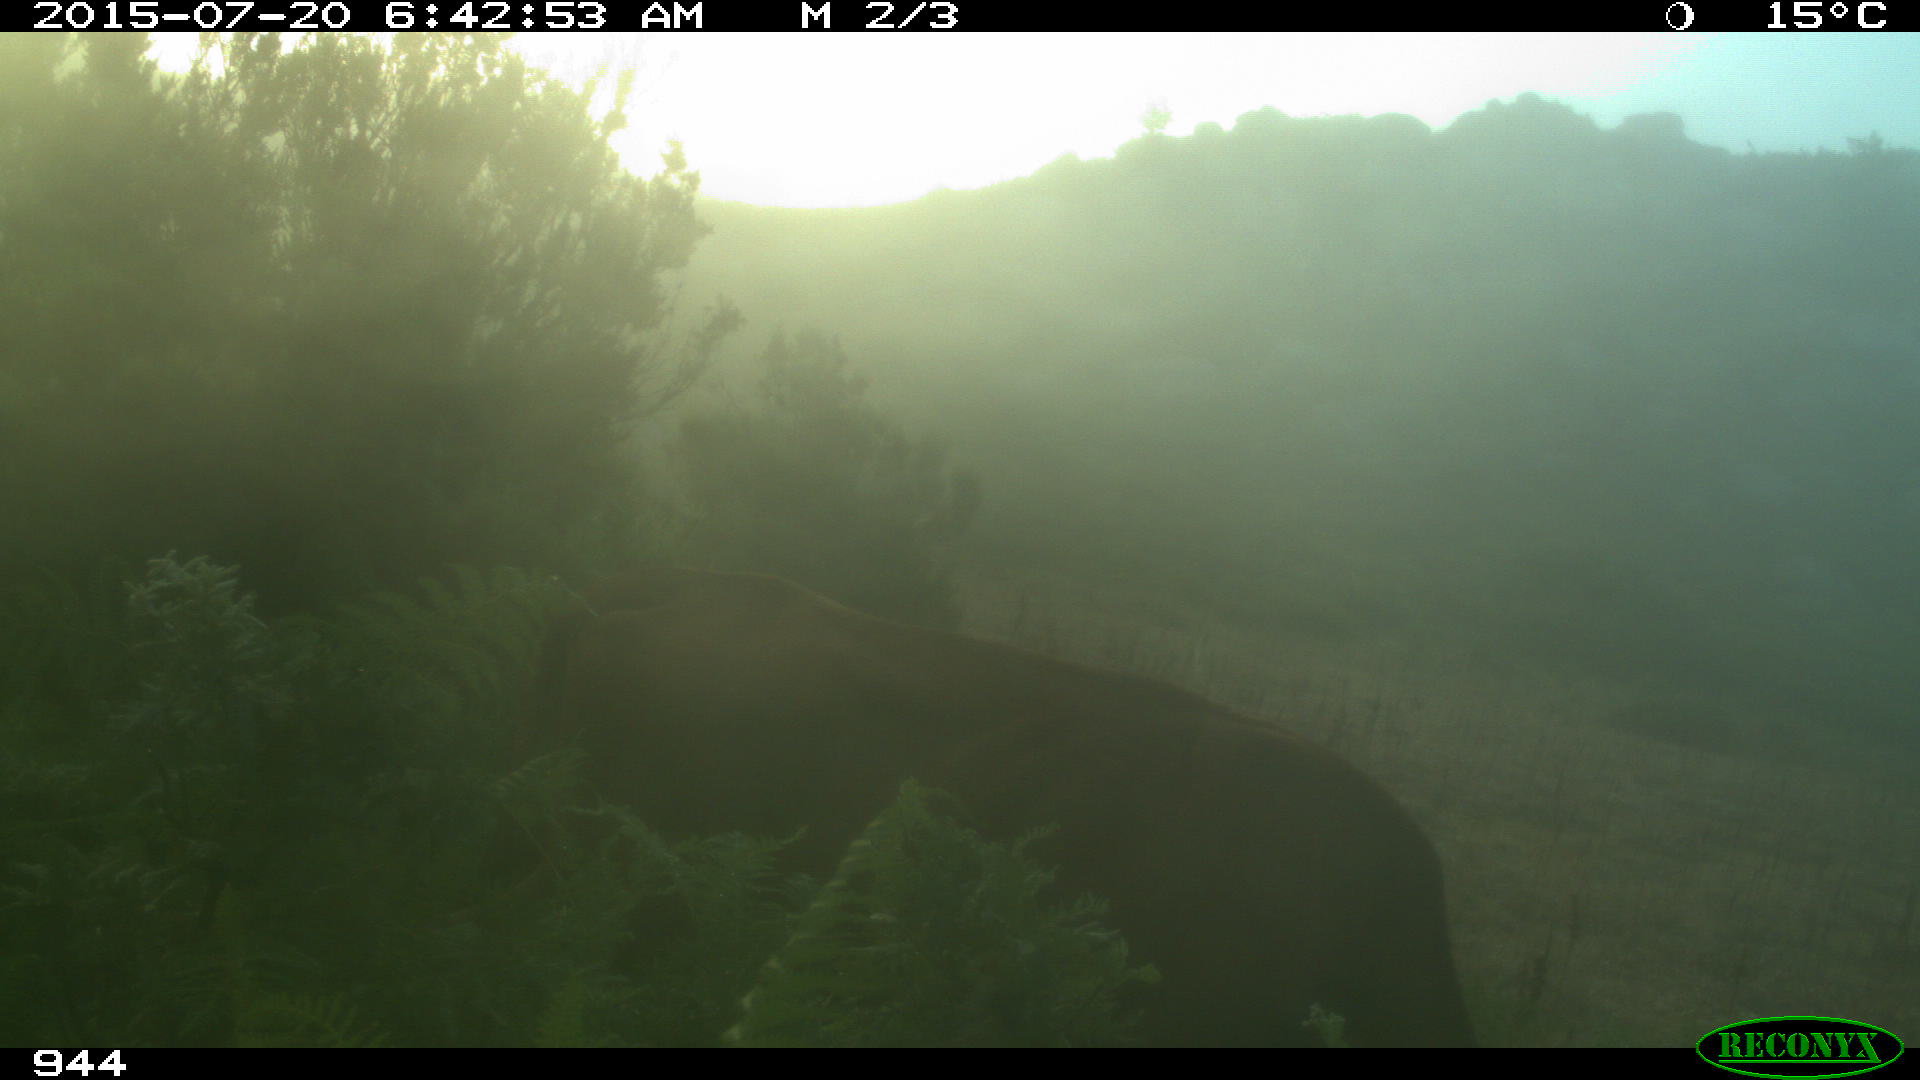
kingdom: Animalia
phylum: Chordata
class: Mammalia
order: Artiodactyla
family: Bovidae
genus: Bos
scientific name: Bos taurus
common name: Domesticated cattle
